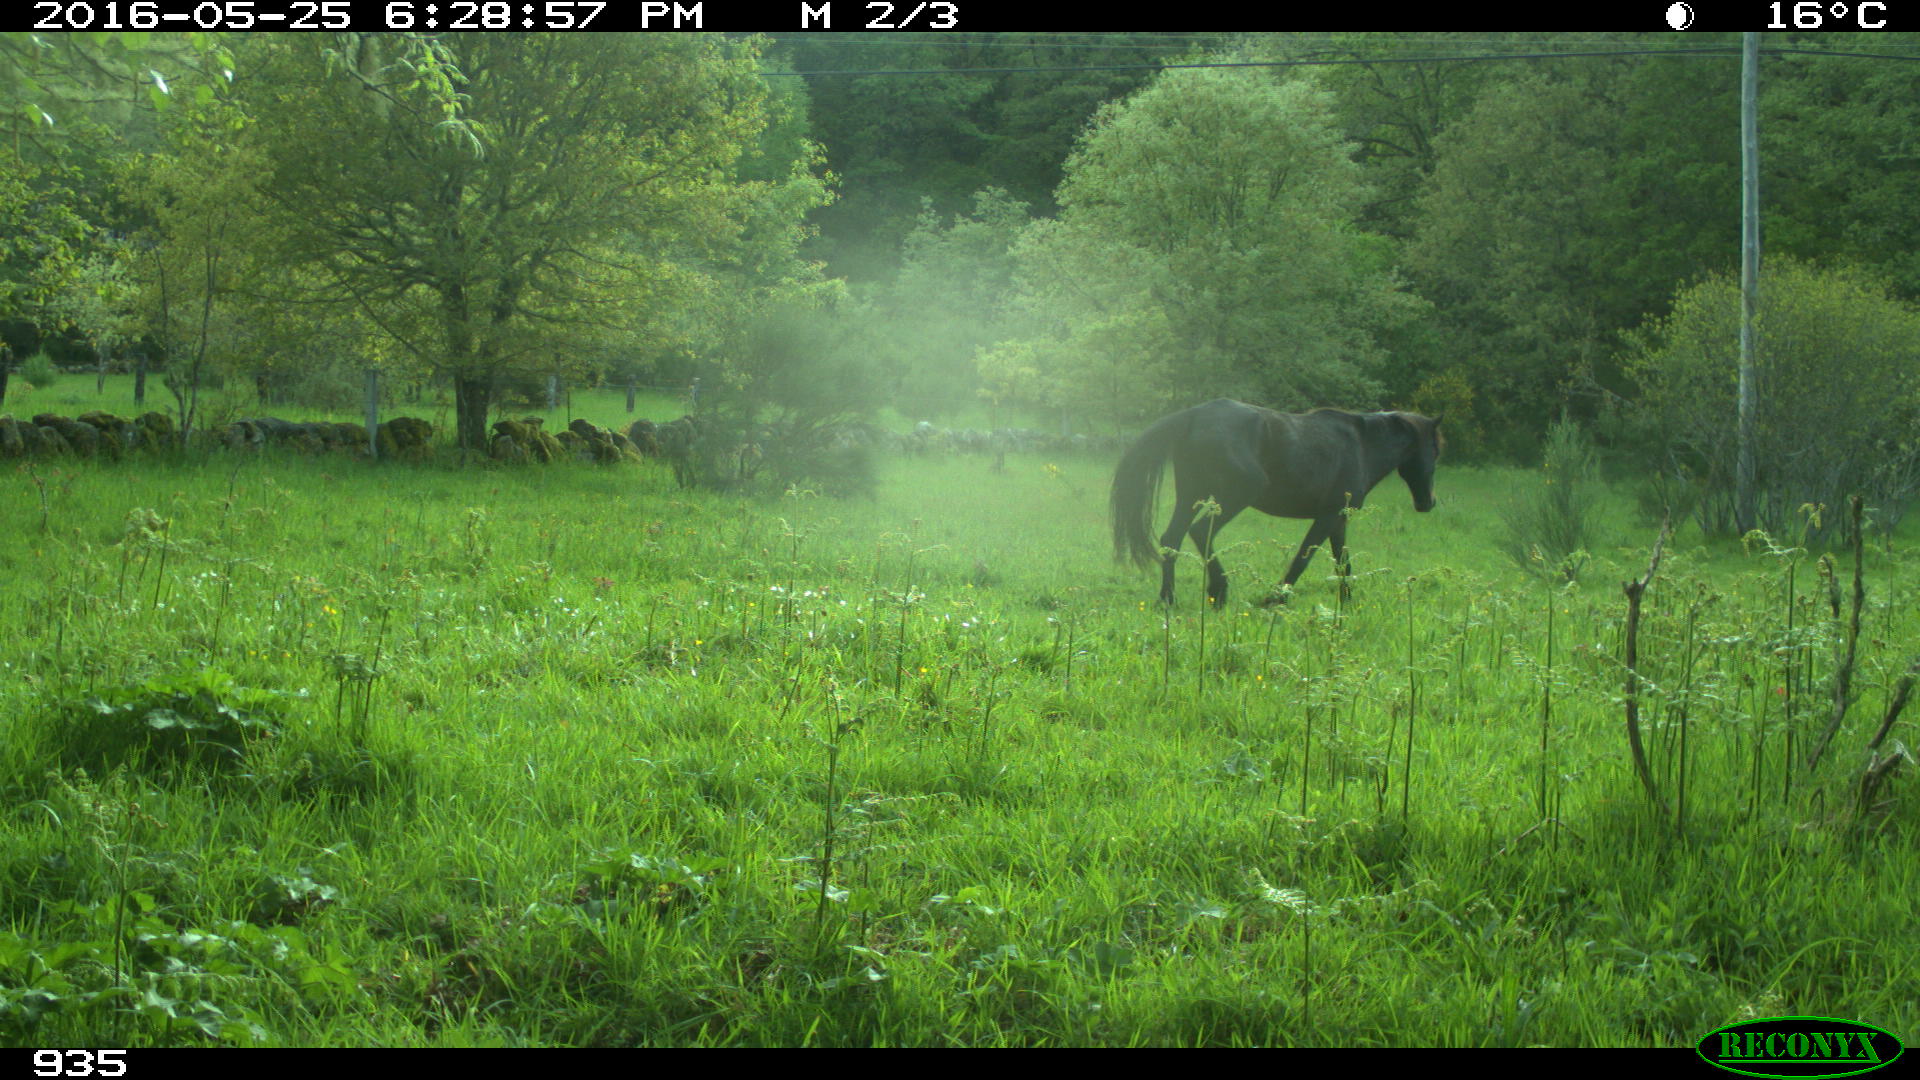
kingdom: Animalia
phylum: Chordata
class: Mammalia
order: Perissodactyla
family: Equidae
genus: Equus
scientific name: Equus caballus
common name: Horse
